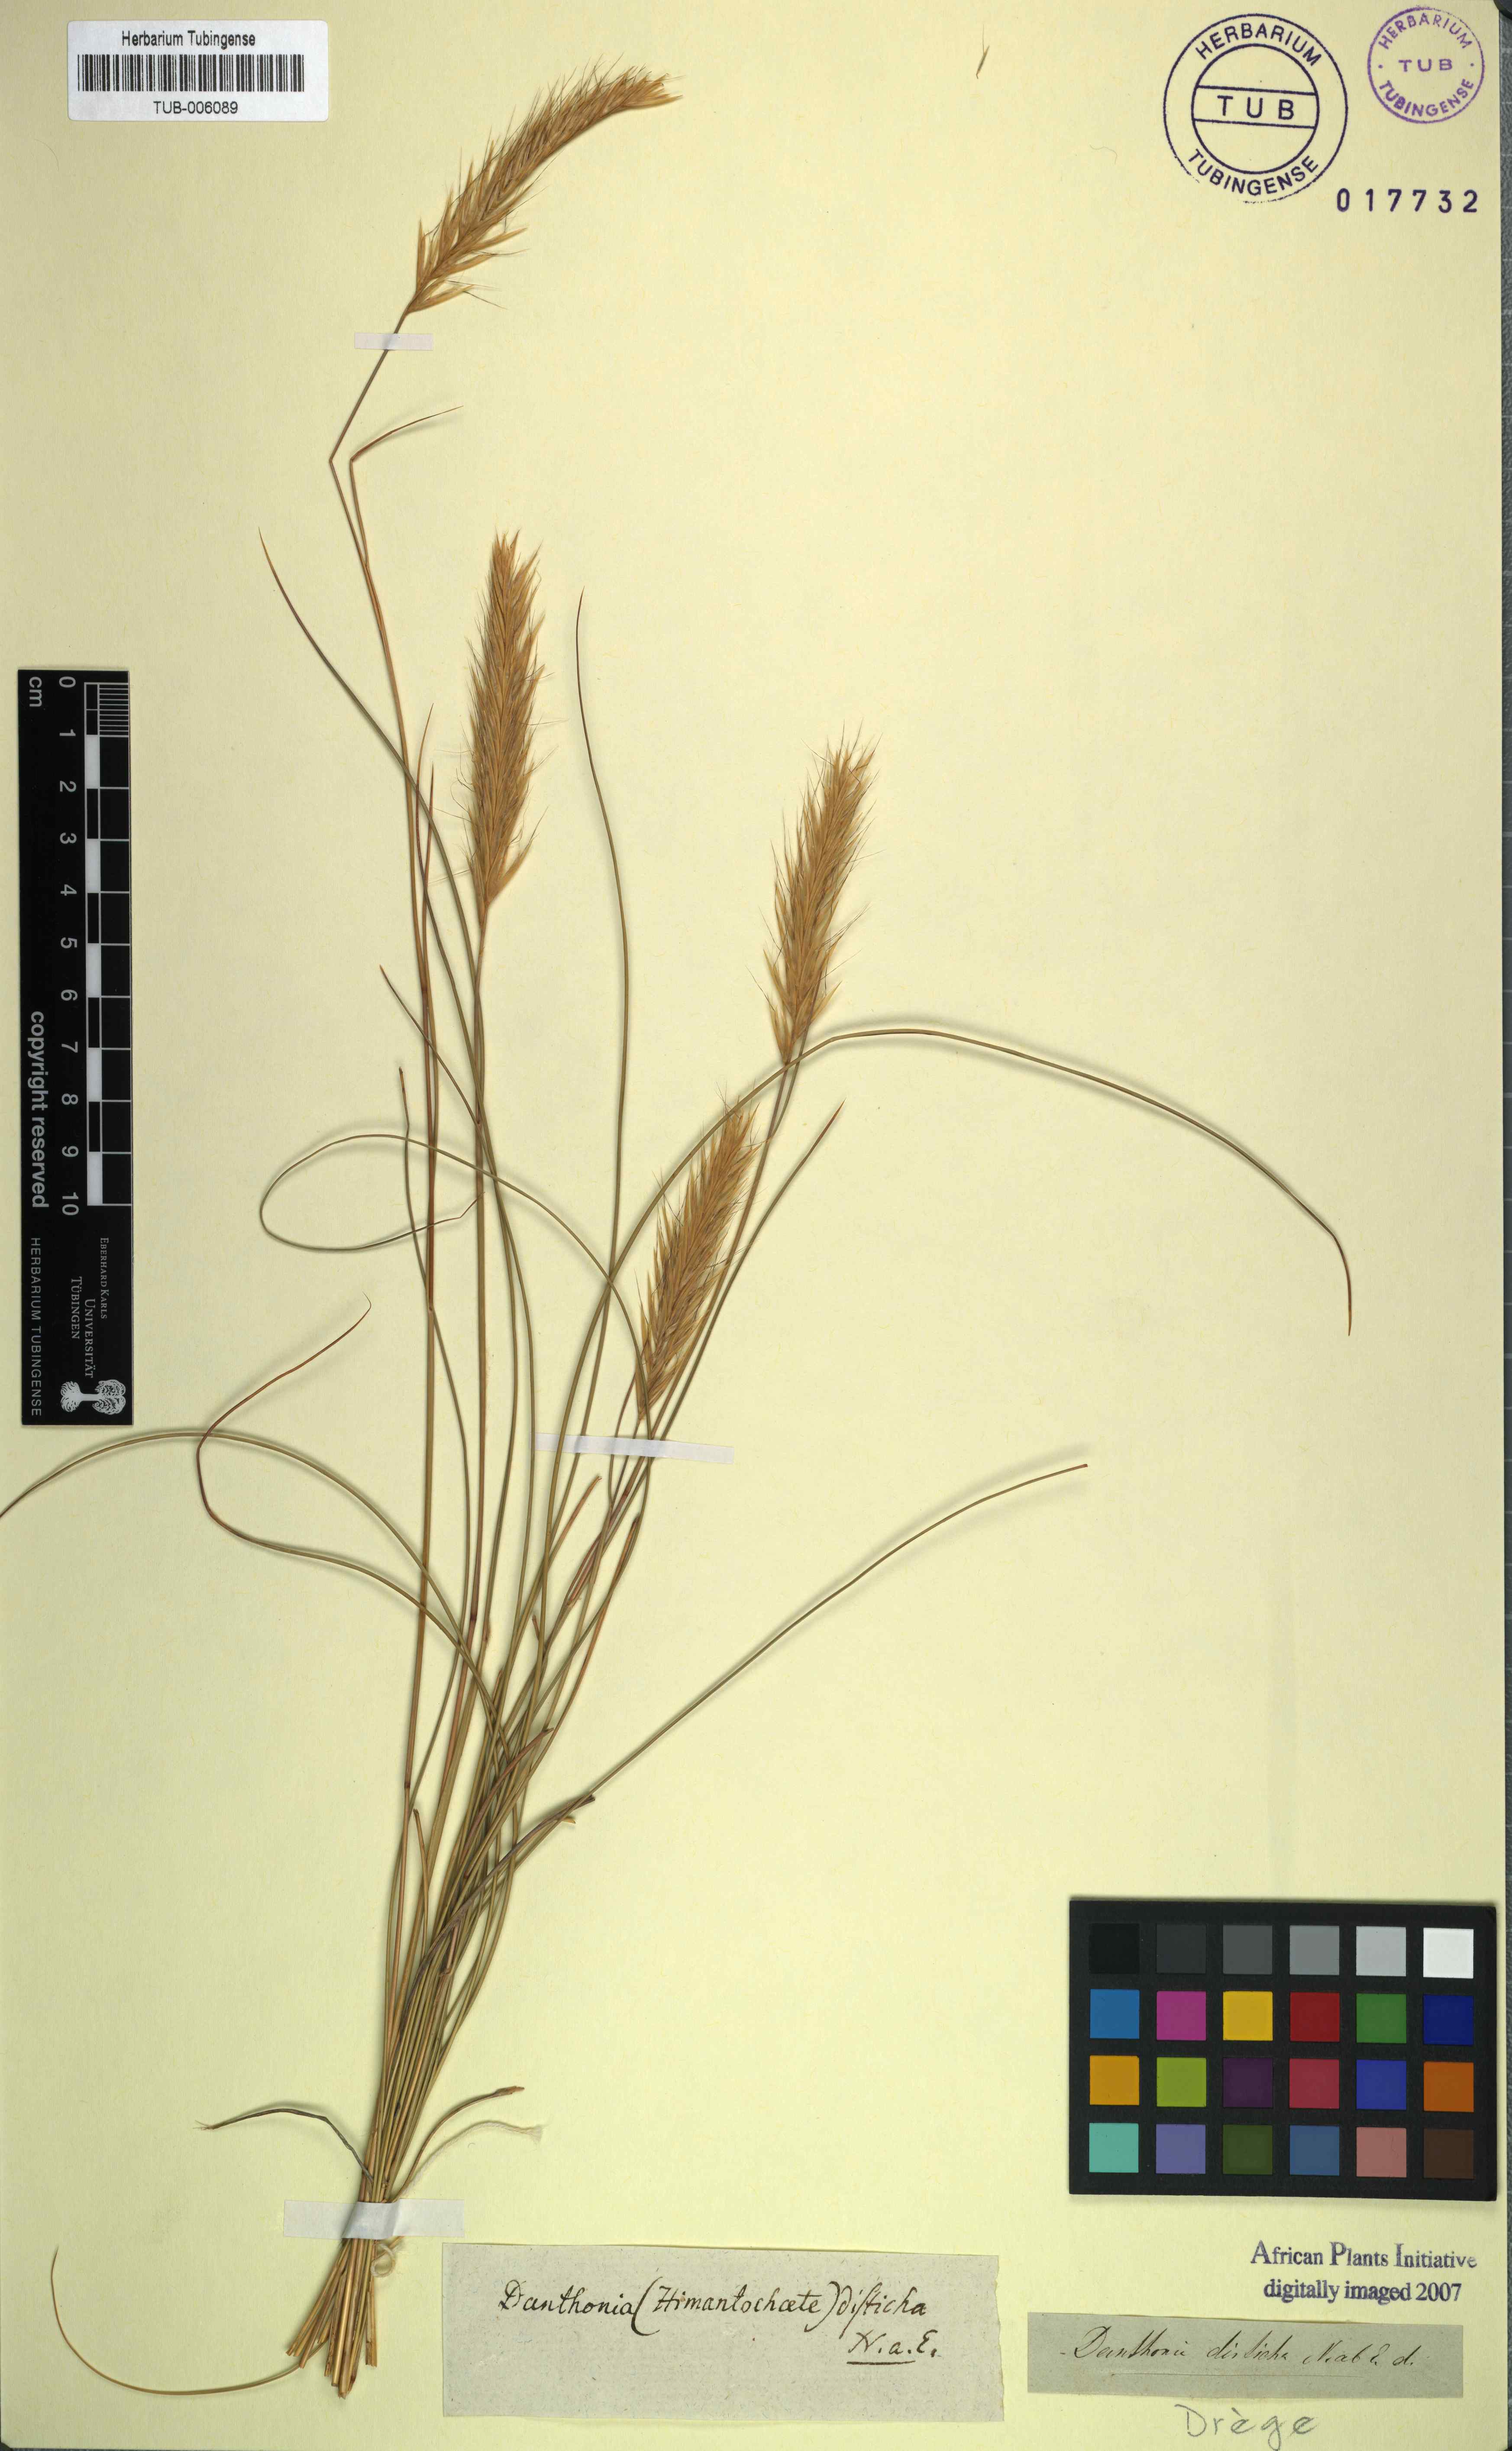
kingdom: Plantae
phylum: Tracheophyta
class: Liliopsida
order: Poales
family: Poaceae
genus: Tenaxia
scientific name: Tenaxia disticha
